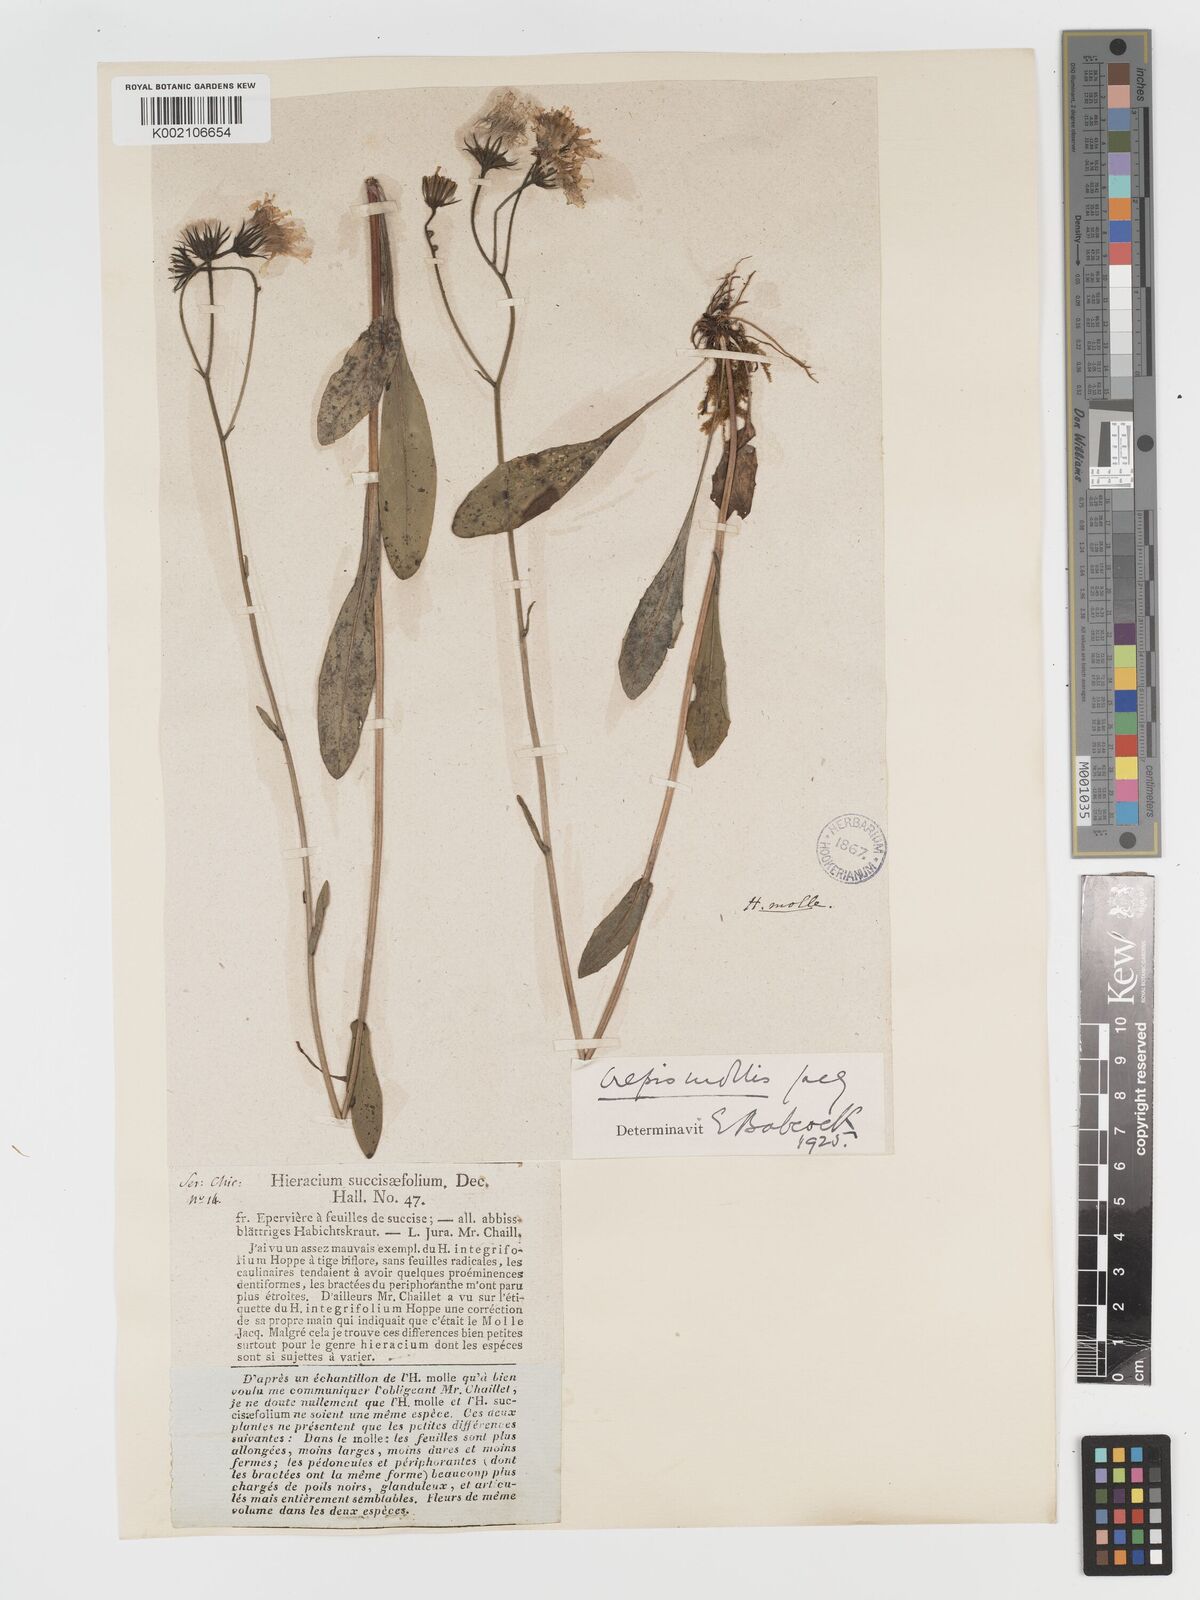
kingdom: Plantae
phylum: Tracheophyta
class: Magnoliopsida
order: Asterales
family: Asteraceae
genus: Crepis
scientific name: Crepis mollis
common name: Northern hawk's-beard
